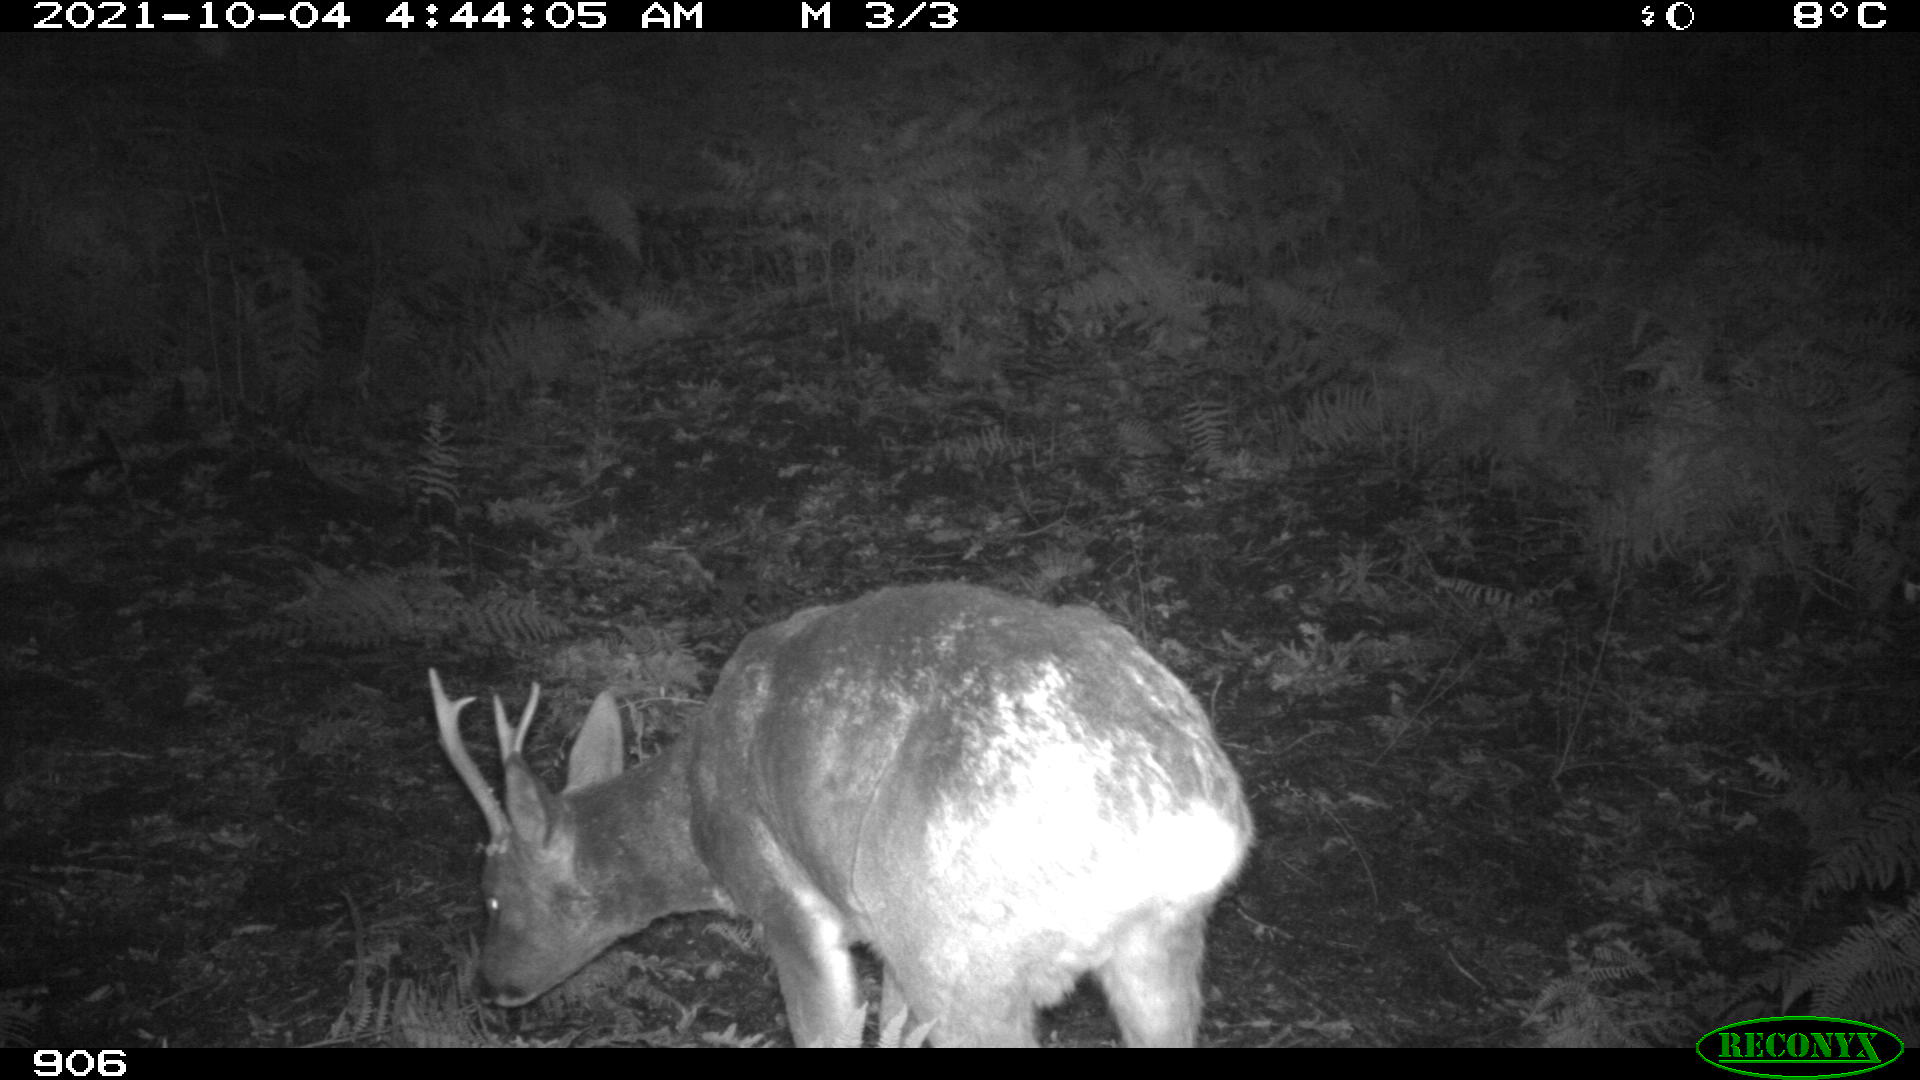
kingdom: Animalia
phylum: Chordata
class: Mammalia
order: Artiodactyla
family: Cervidae
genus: Capreolus
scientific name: Capreolus capreolus
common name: Western roe deer
